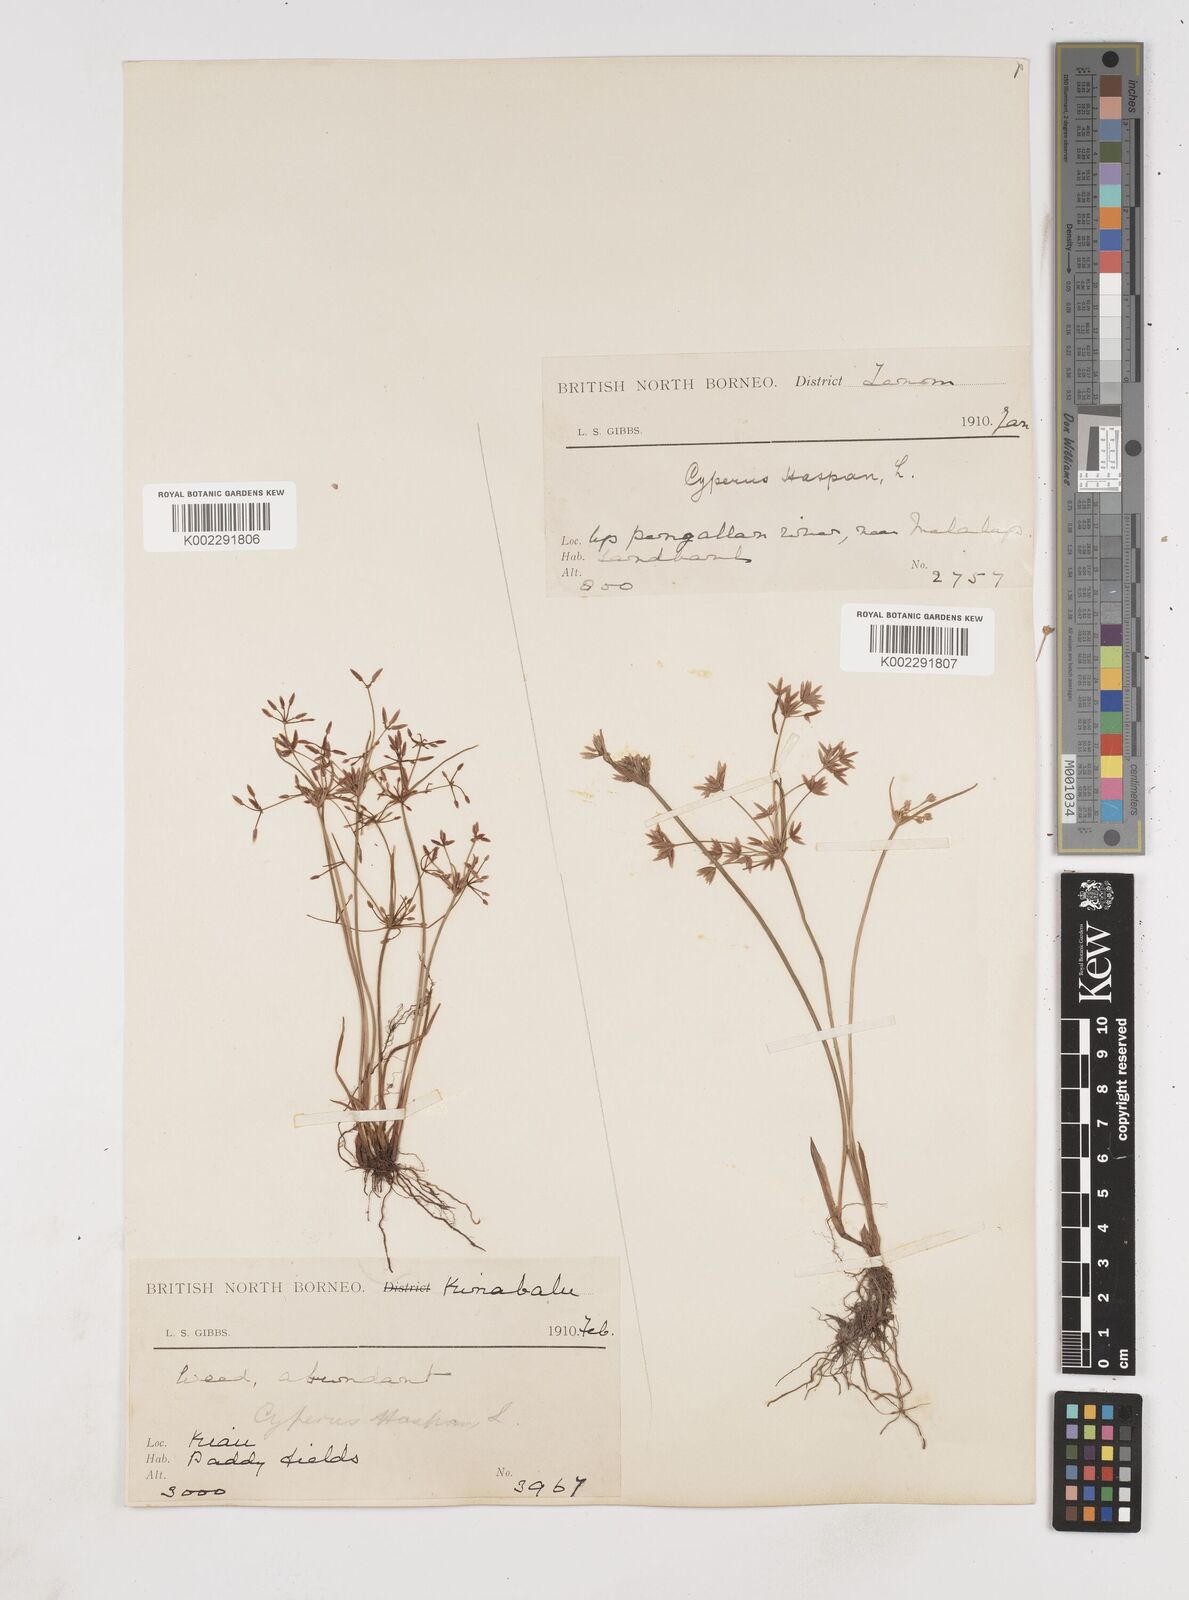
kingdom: Plantae
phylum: Tracheophyta
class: Liliopsida
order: Poales
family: Cyperaceae
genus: Cyperus
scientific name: Cyperus haspan
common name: Haspan flatsedge
